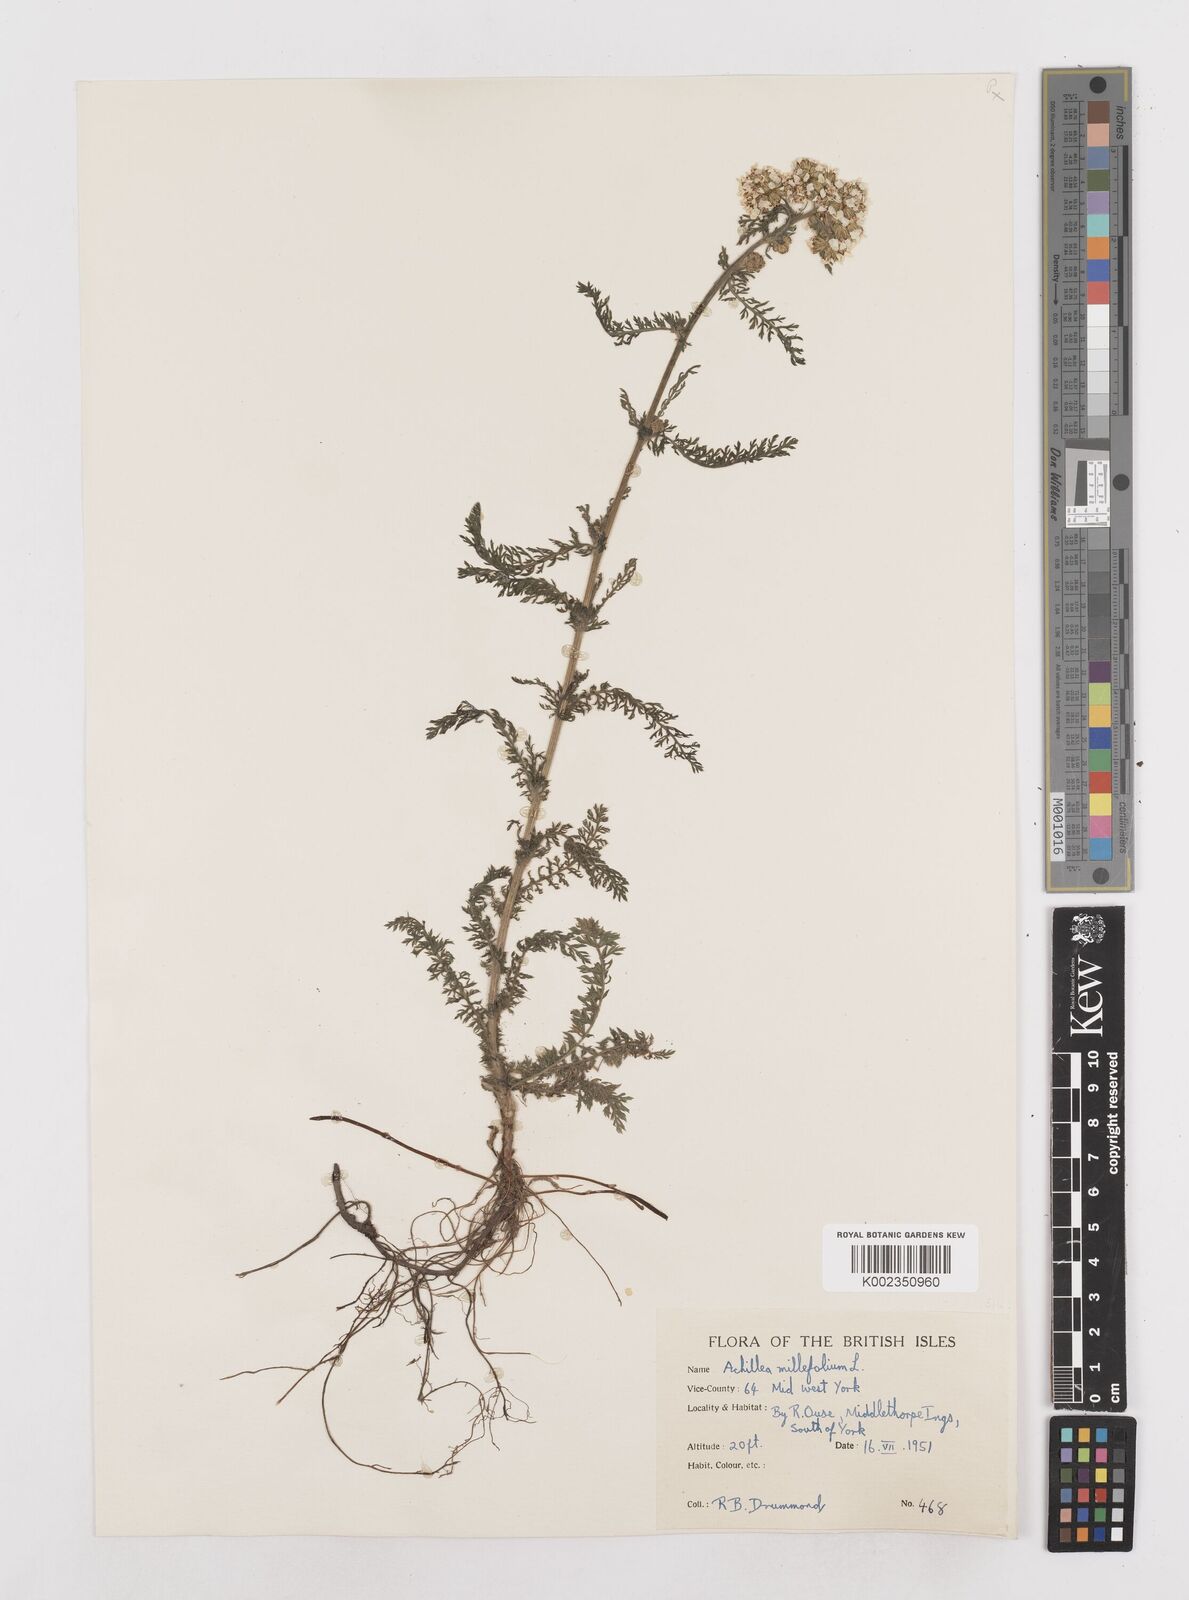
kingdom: Plantae
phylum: Tracheophyta
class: Magnoliopsida
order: Asterales
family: Asteraceae
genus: Achillea
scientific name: Achillea
